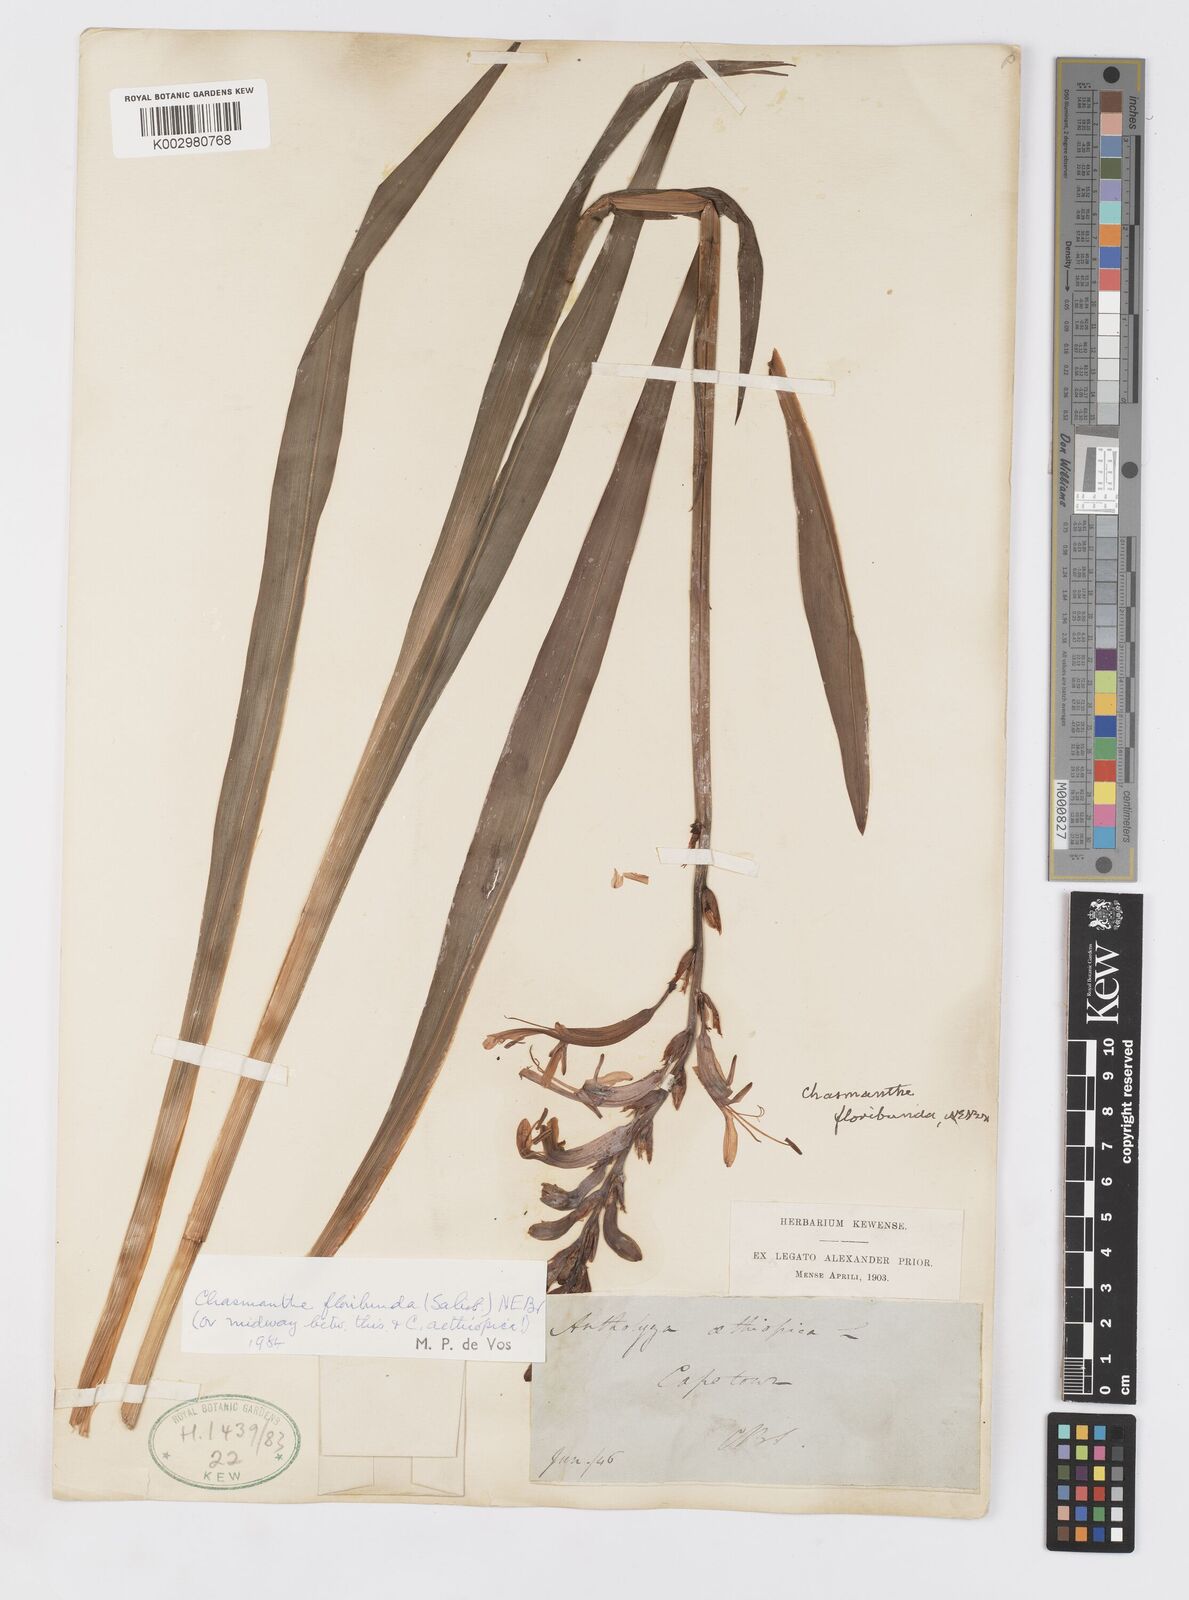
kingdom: Plantae
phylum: Tracheophyta
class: Liliopsida
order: Asparagales
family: Iridaceae
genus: Chasmanthe
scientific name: Chasmanthe floribunda
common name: African cornflag
